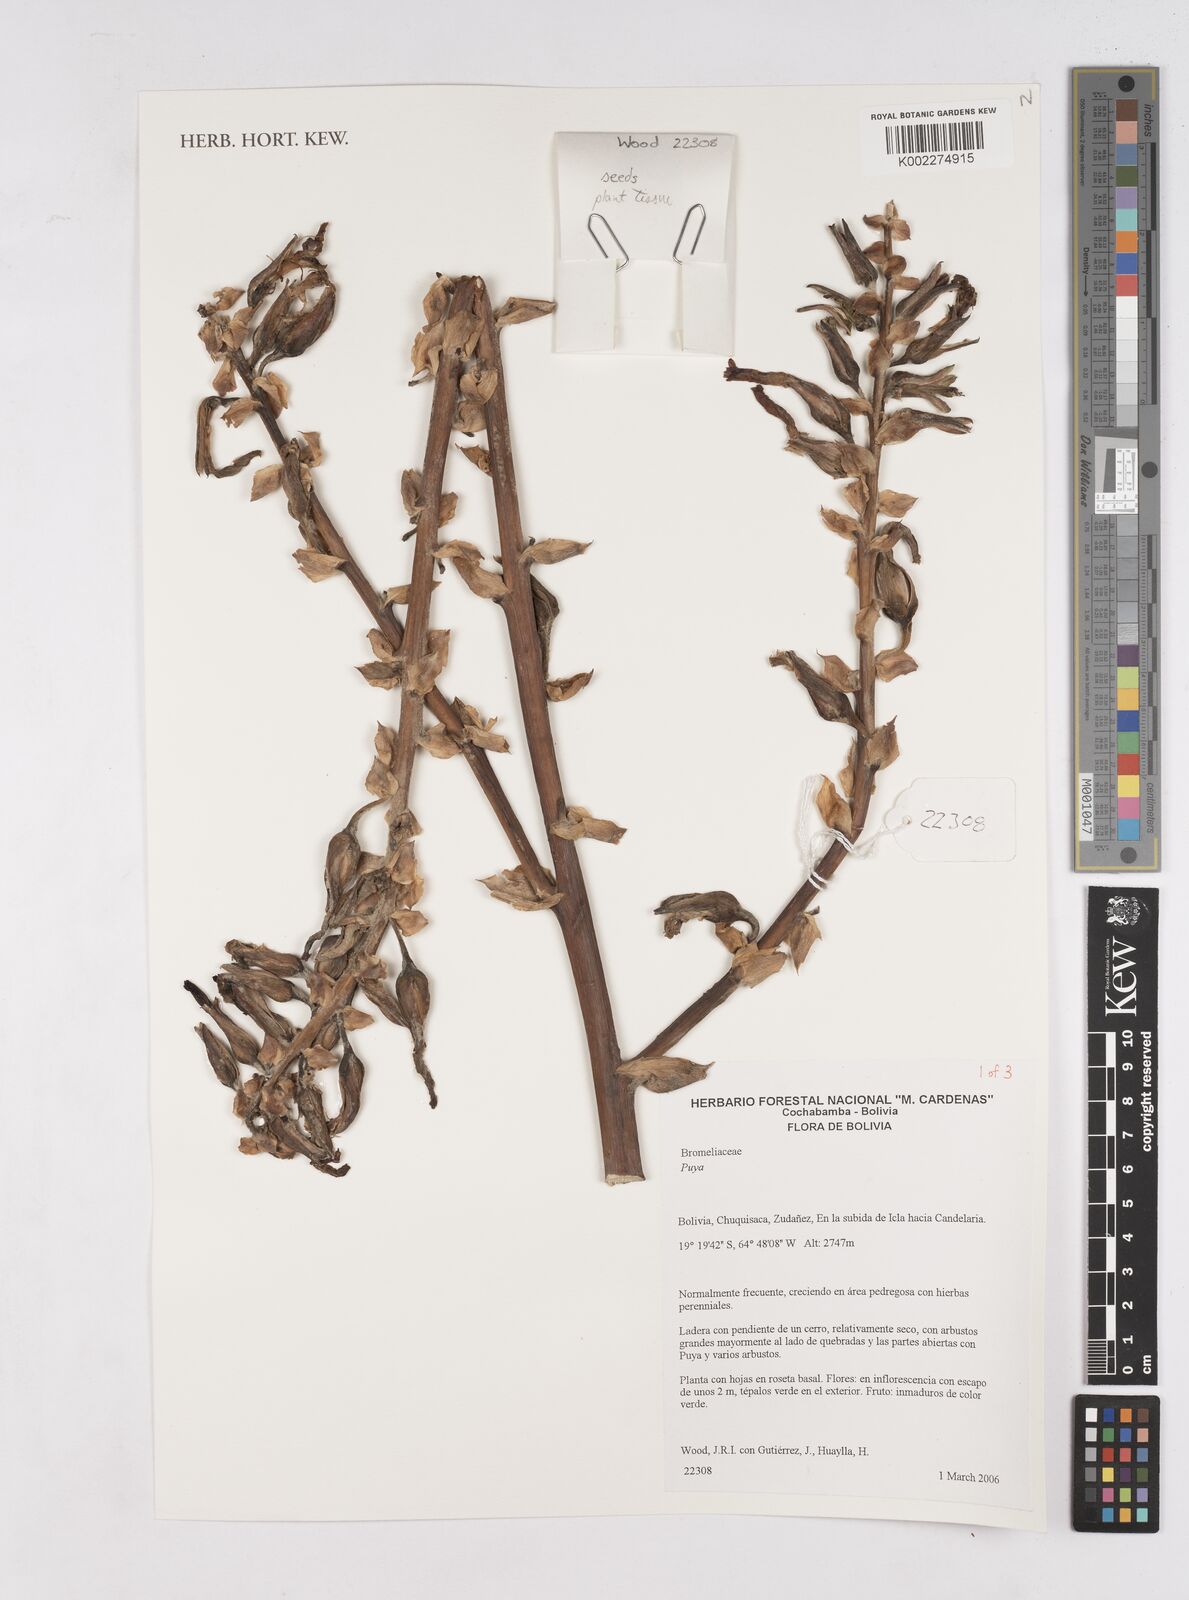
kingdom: Plantae
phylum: Tracheophyta
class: Liliopsida
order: Poales
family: Bromeliaceae
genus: Puya
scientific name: Puya
